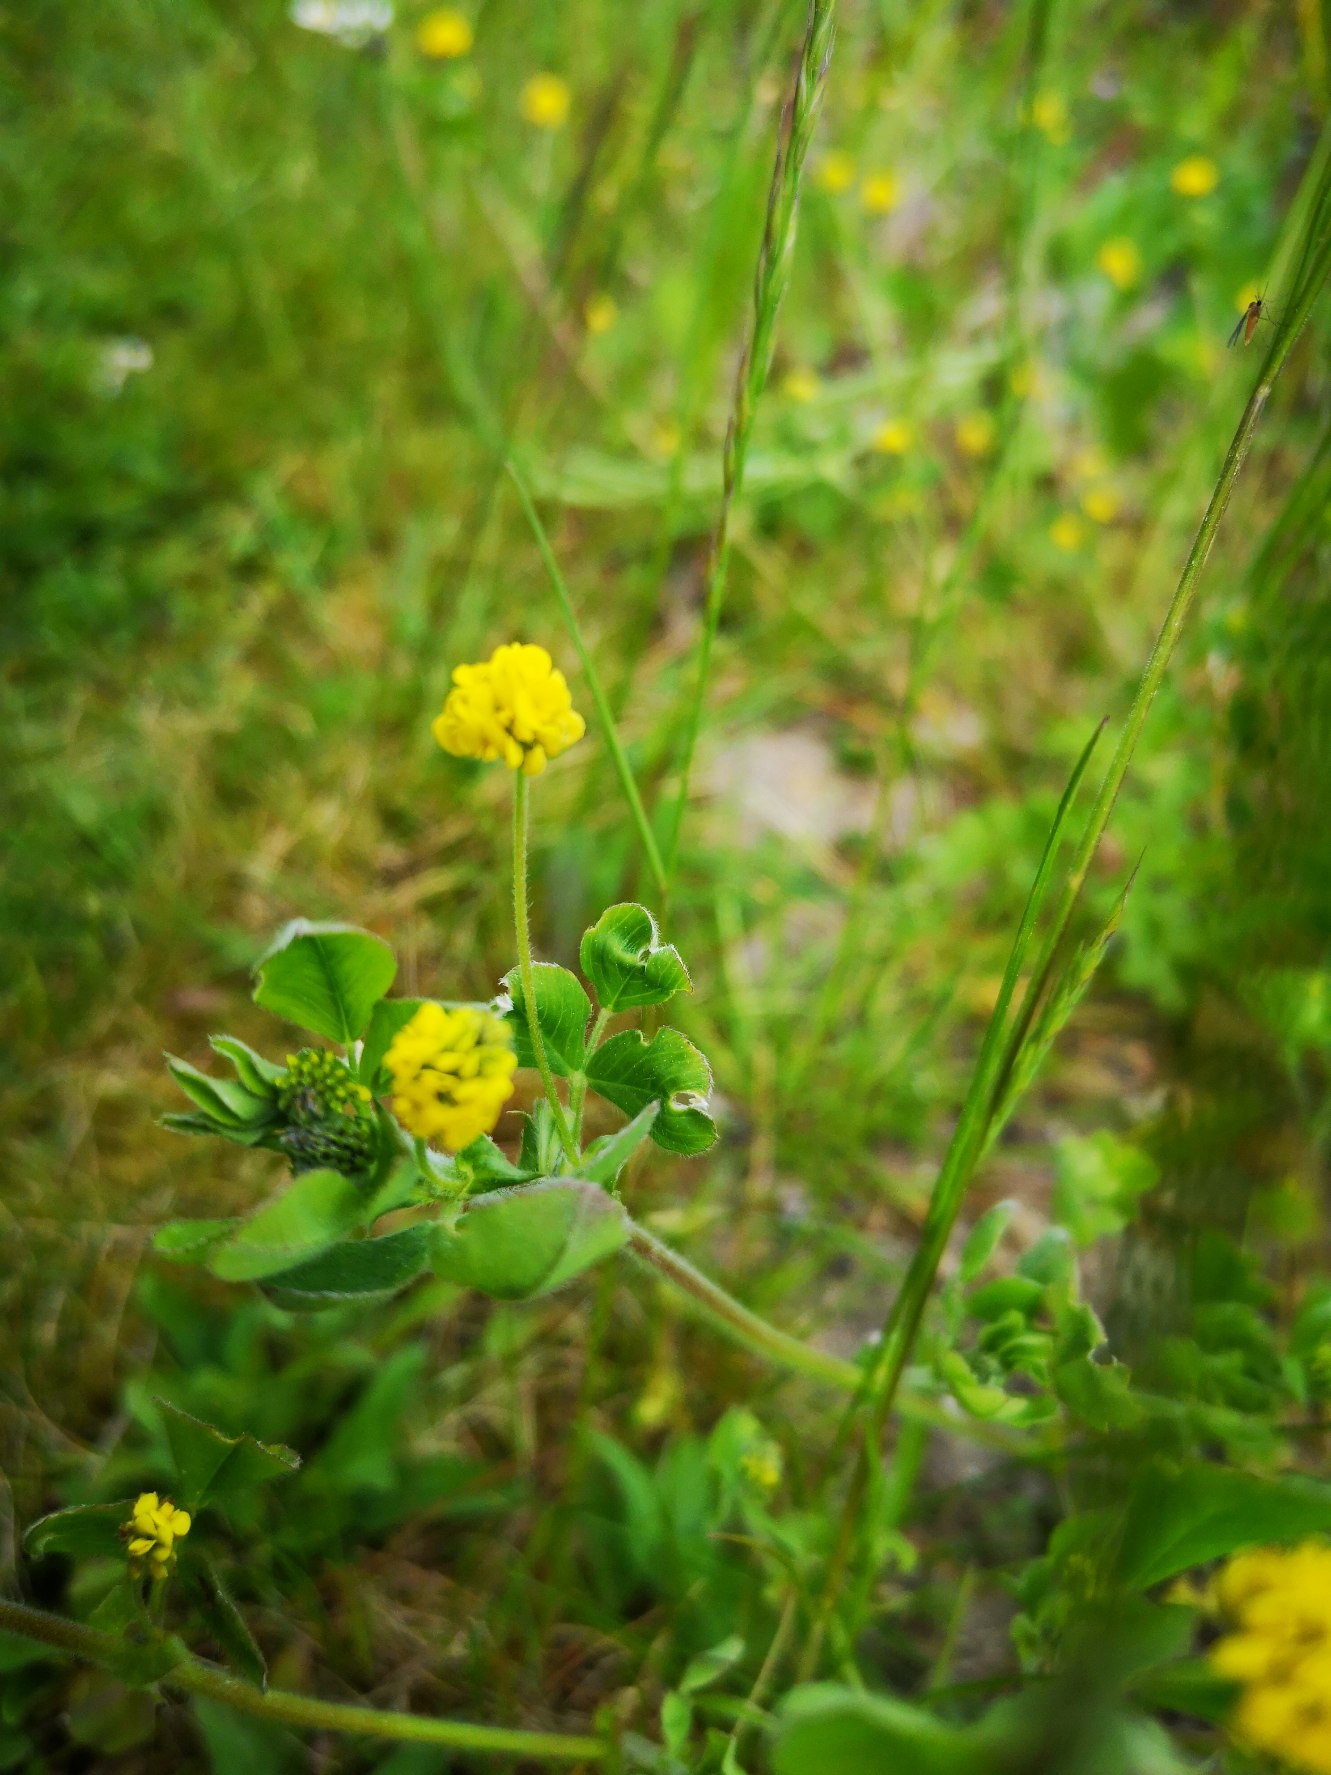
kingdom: Plantae
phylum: Tracheophyta
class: Magnoliopsida
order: Fabales
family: Fabaceae
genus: Medicago
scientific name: Medicago lupulina
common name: Humle-sneglebælg
